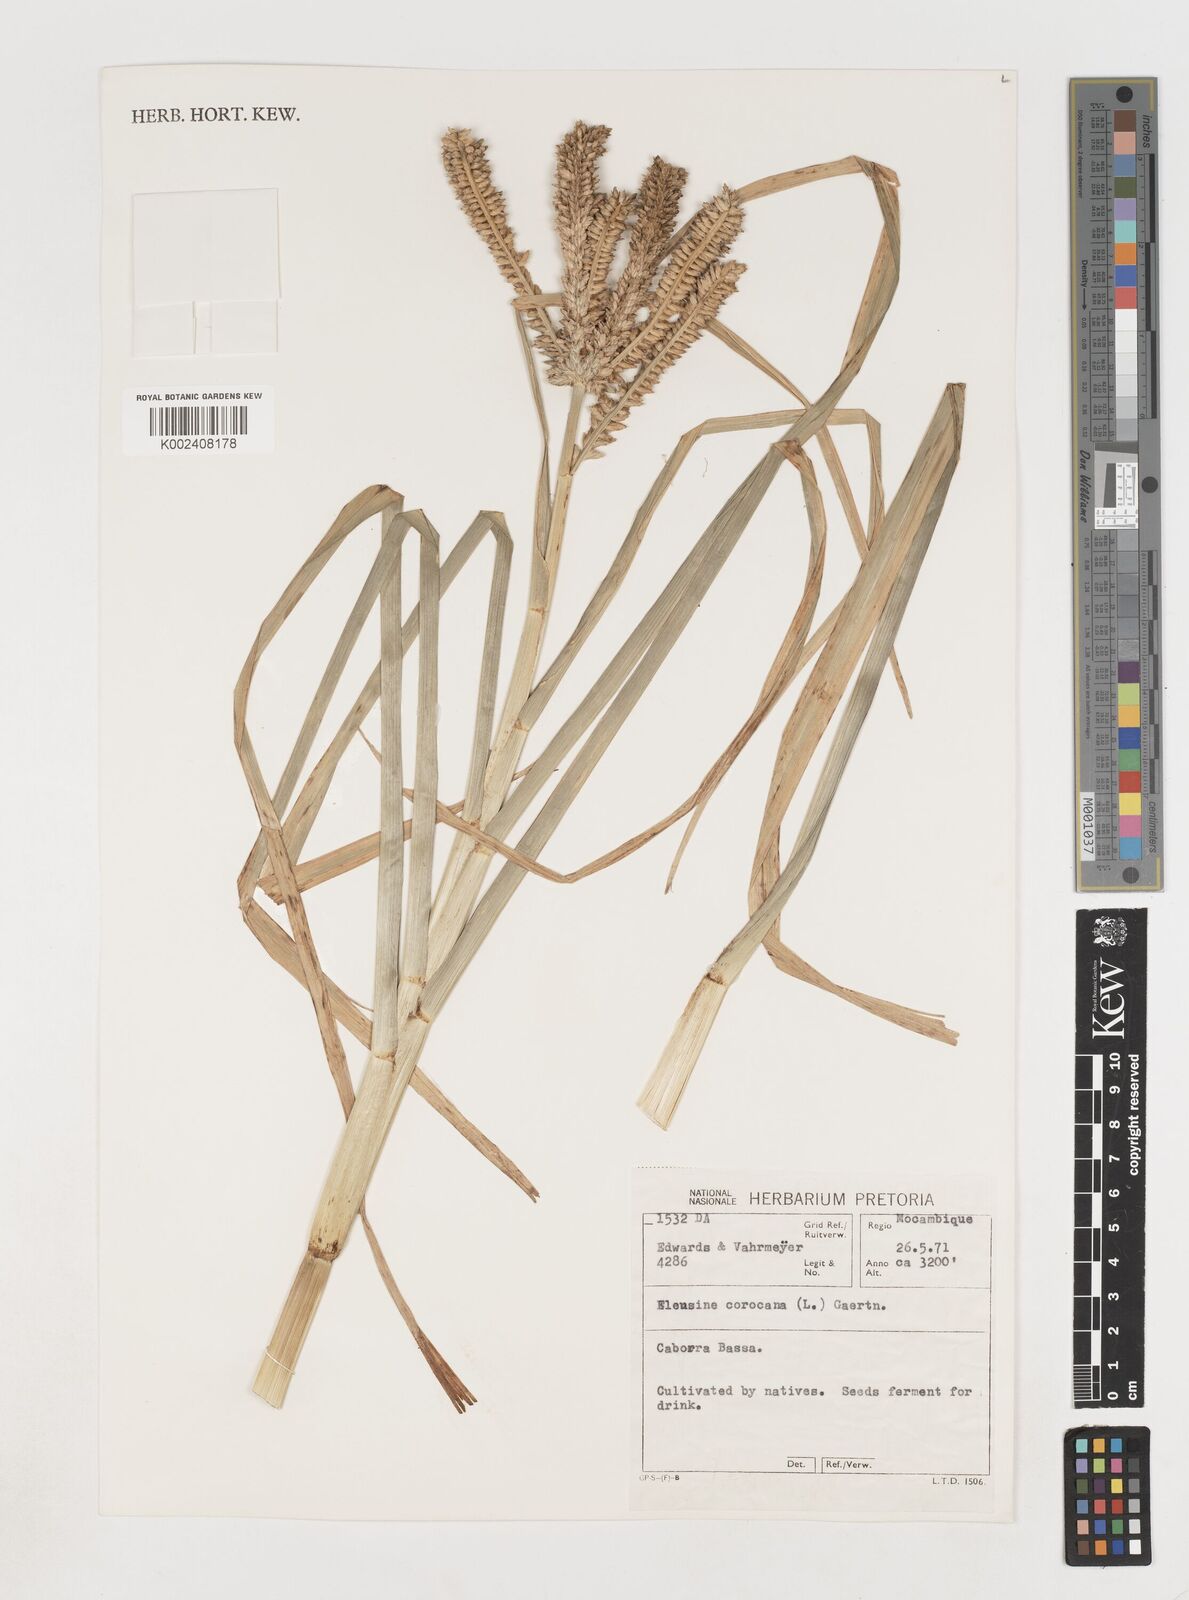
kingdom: Plantae
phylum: Tracheophyta
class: Liliopsida
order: Poales
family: Poaceae
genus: Eleusine
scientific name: Eleusine coracana
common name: Finger millet
